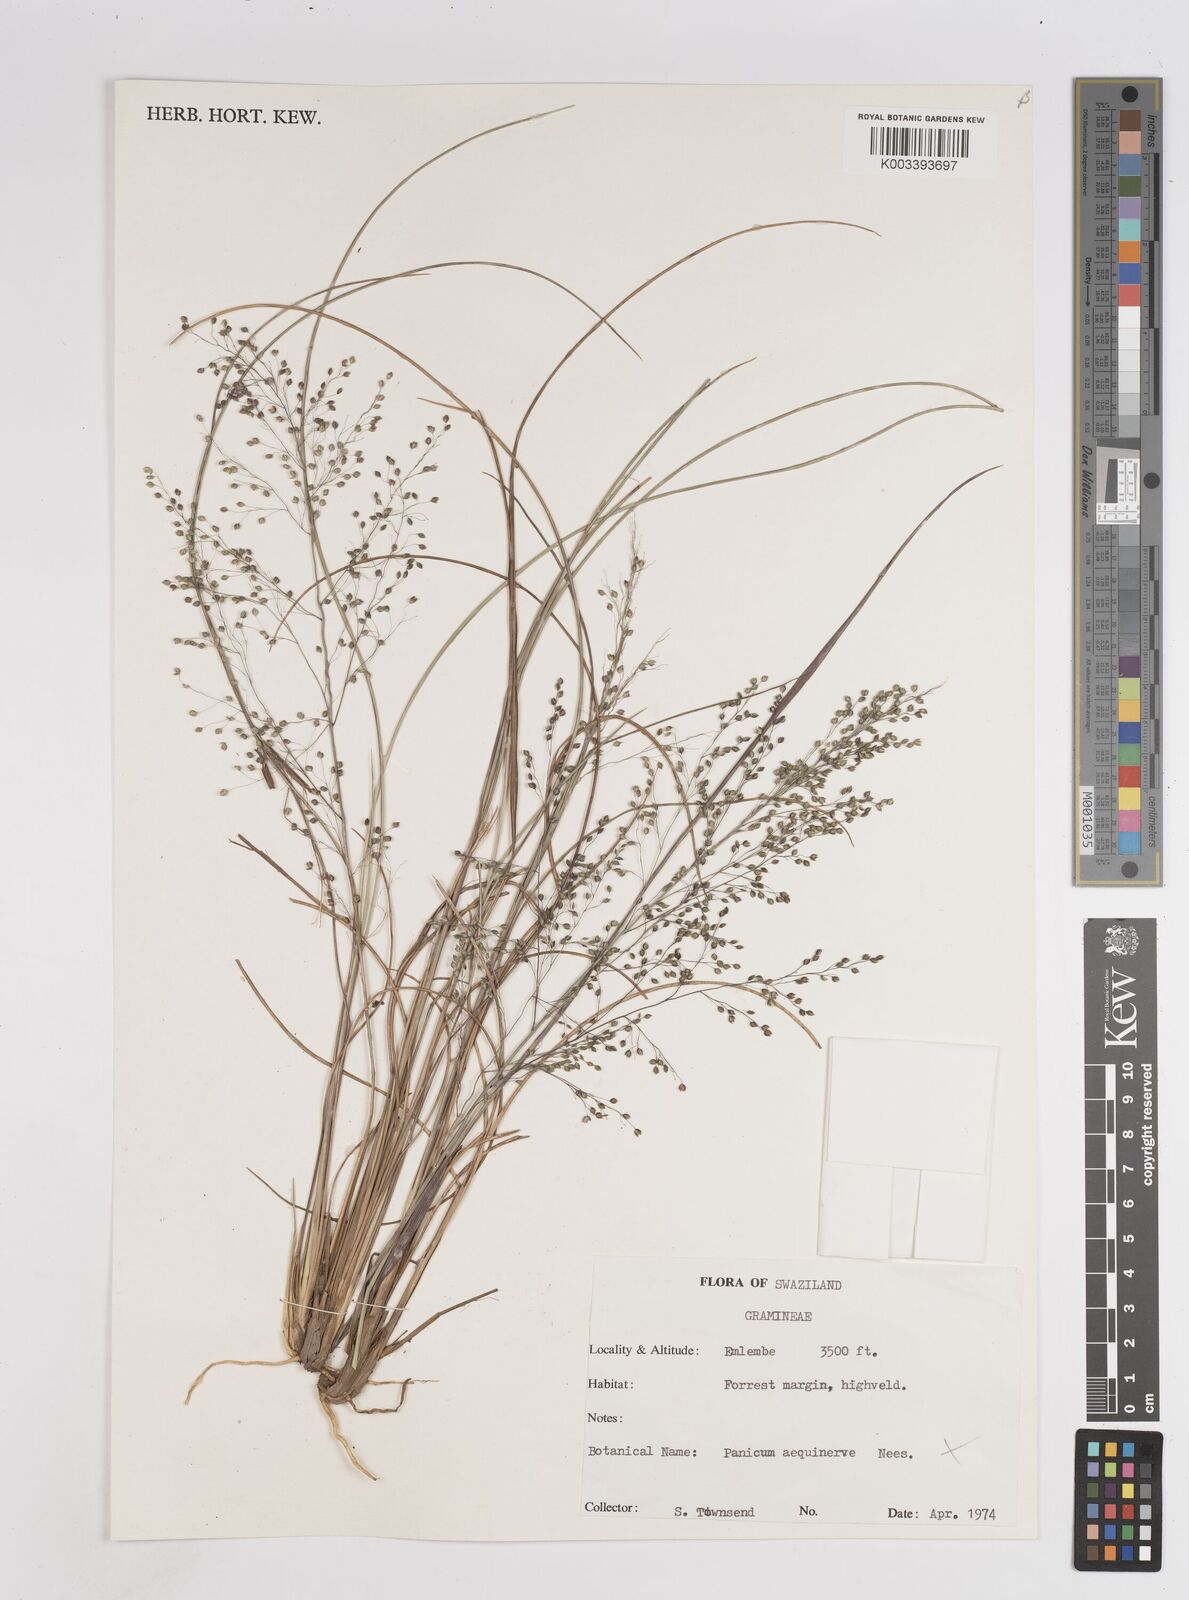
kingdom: Plantae
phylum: Tracheophyta
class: Liliopsida
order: Poales
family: Poaceae
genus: Trichanthecium
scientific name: Trichanthecium natalense
